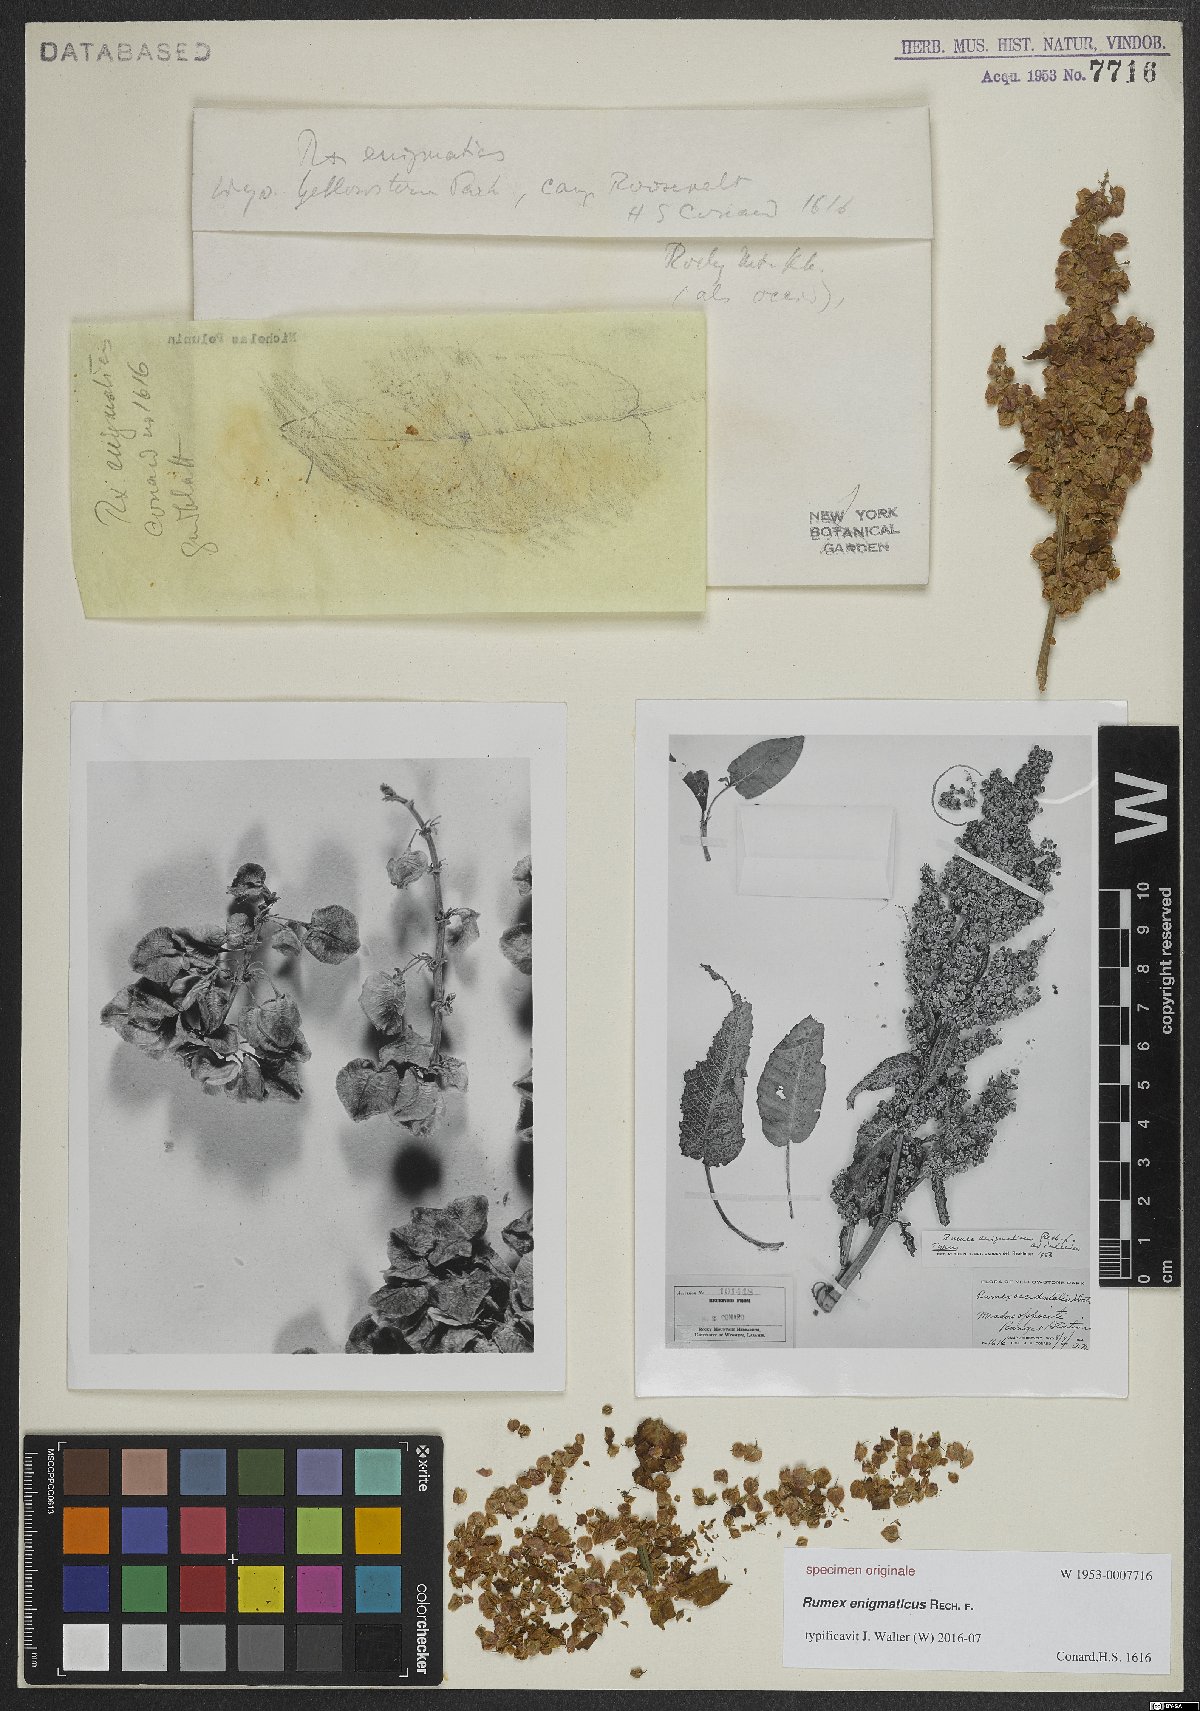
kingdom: Plantae
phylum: Tracheophyta
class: Magnoliopsida
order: Caryophyllales
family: Polygonaceae
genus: Rumex
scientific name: Rumex
